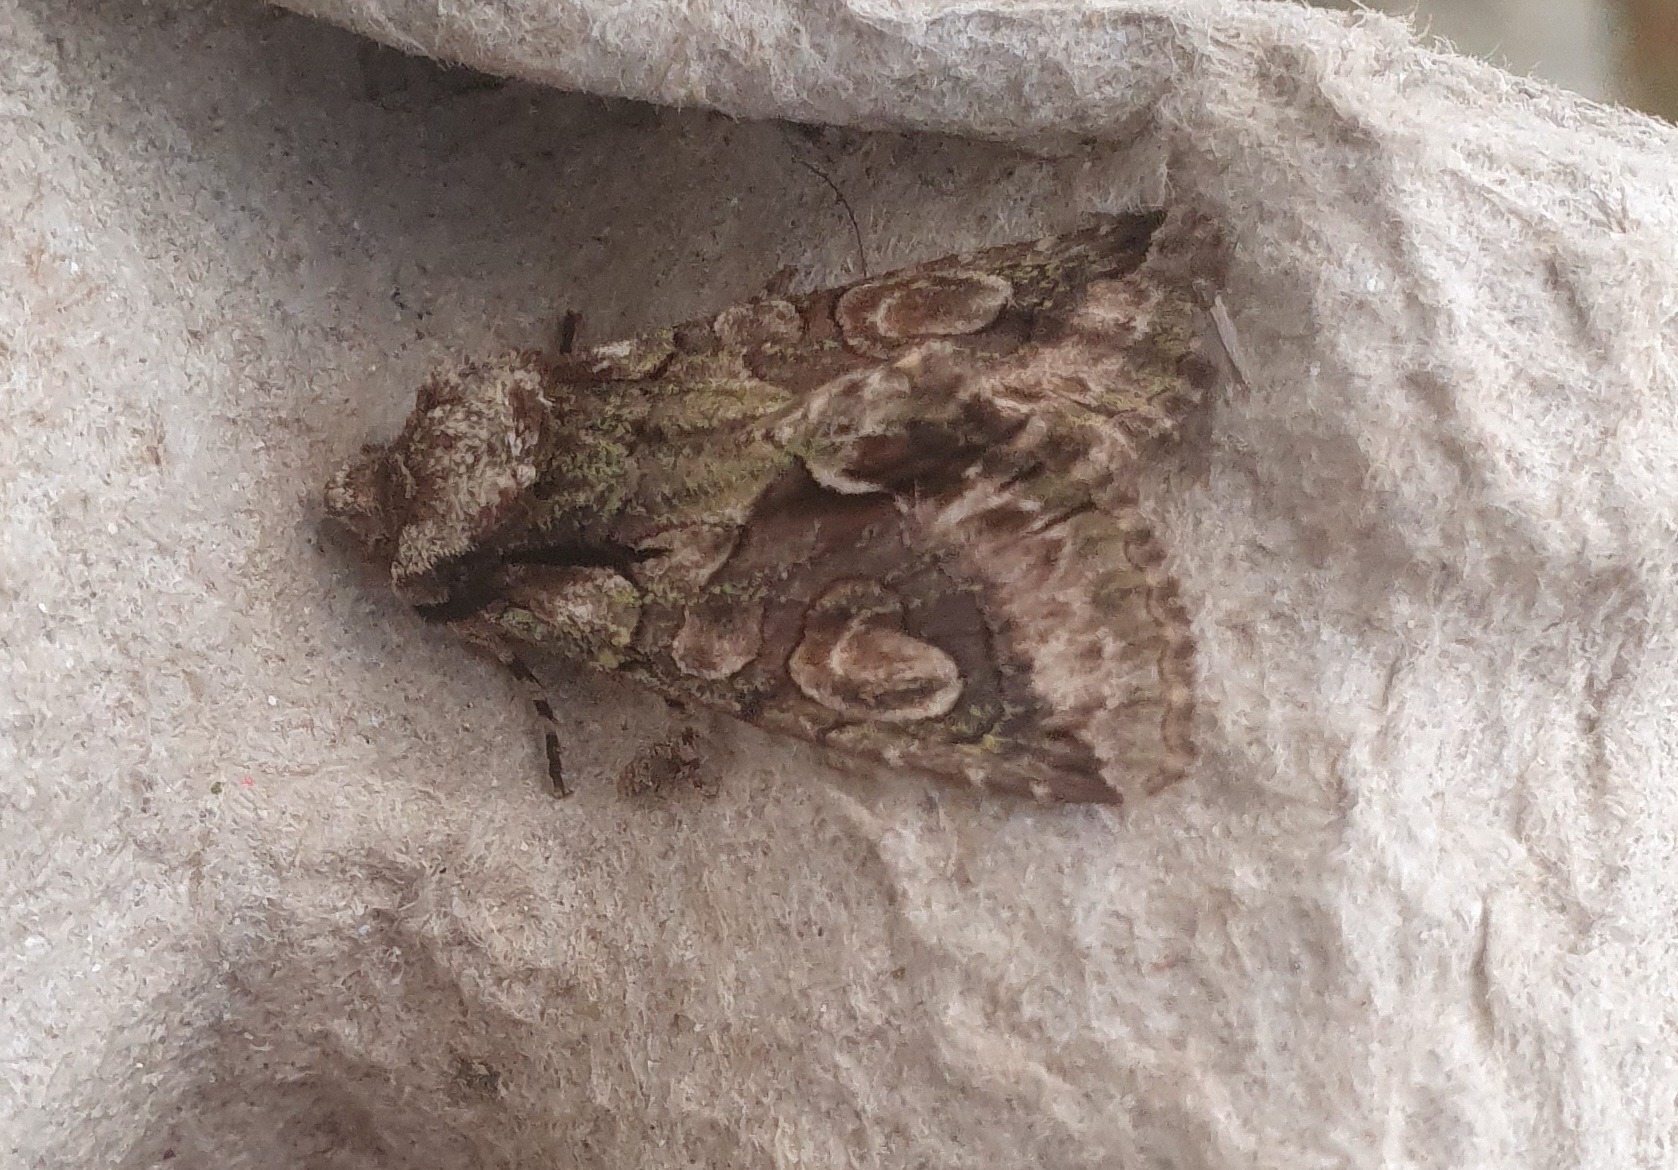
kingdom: Animalia
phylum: Arthropoda
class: Insecta
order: Lepidoptera
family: Noctuidae
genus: Allophyes
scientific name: Allophyes oxyacanthae
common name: Tjørneugle
